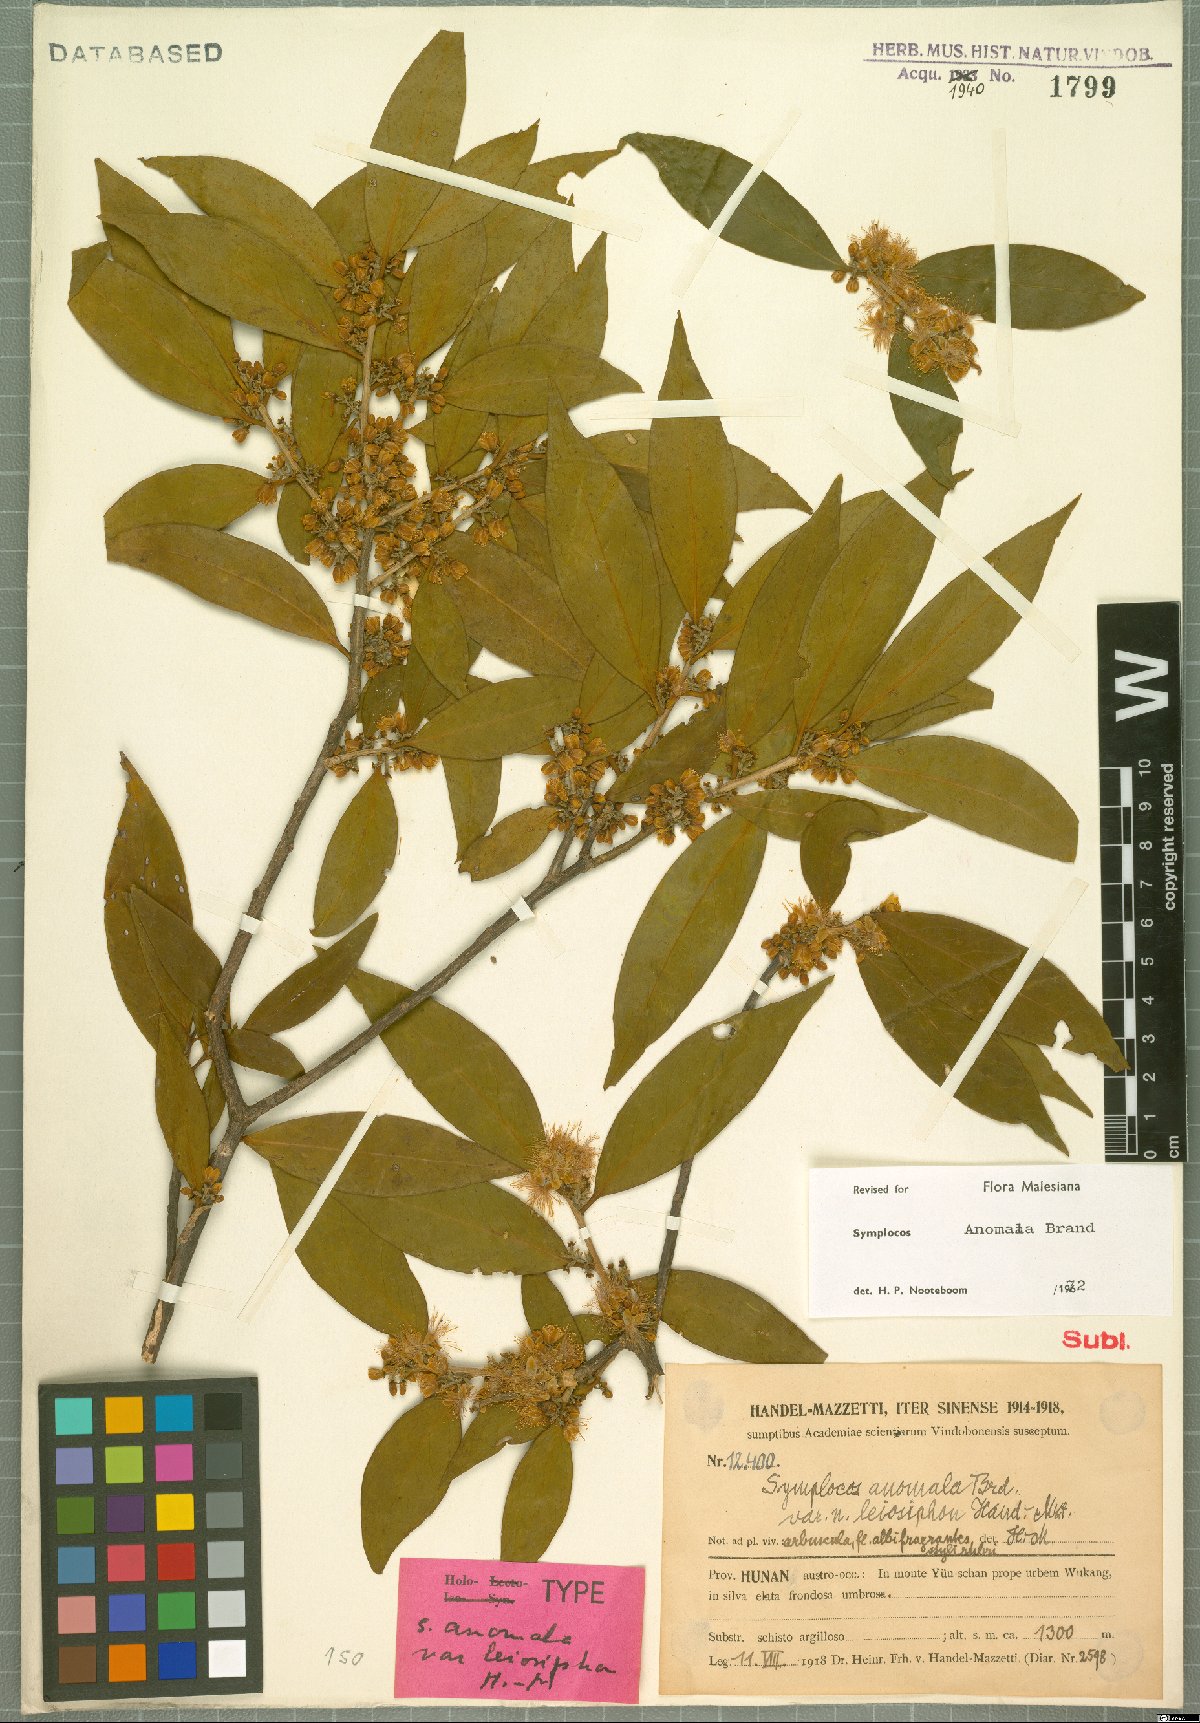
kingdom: Plantae
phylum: Tracheophyta
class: Magnoliopsida
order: Ericales
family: Symplocaceae
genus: Symplocos
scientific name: Symplocos anomala
